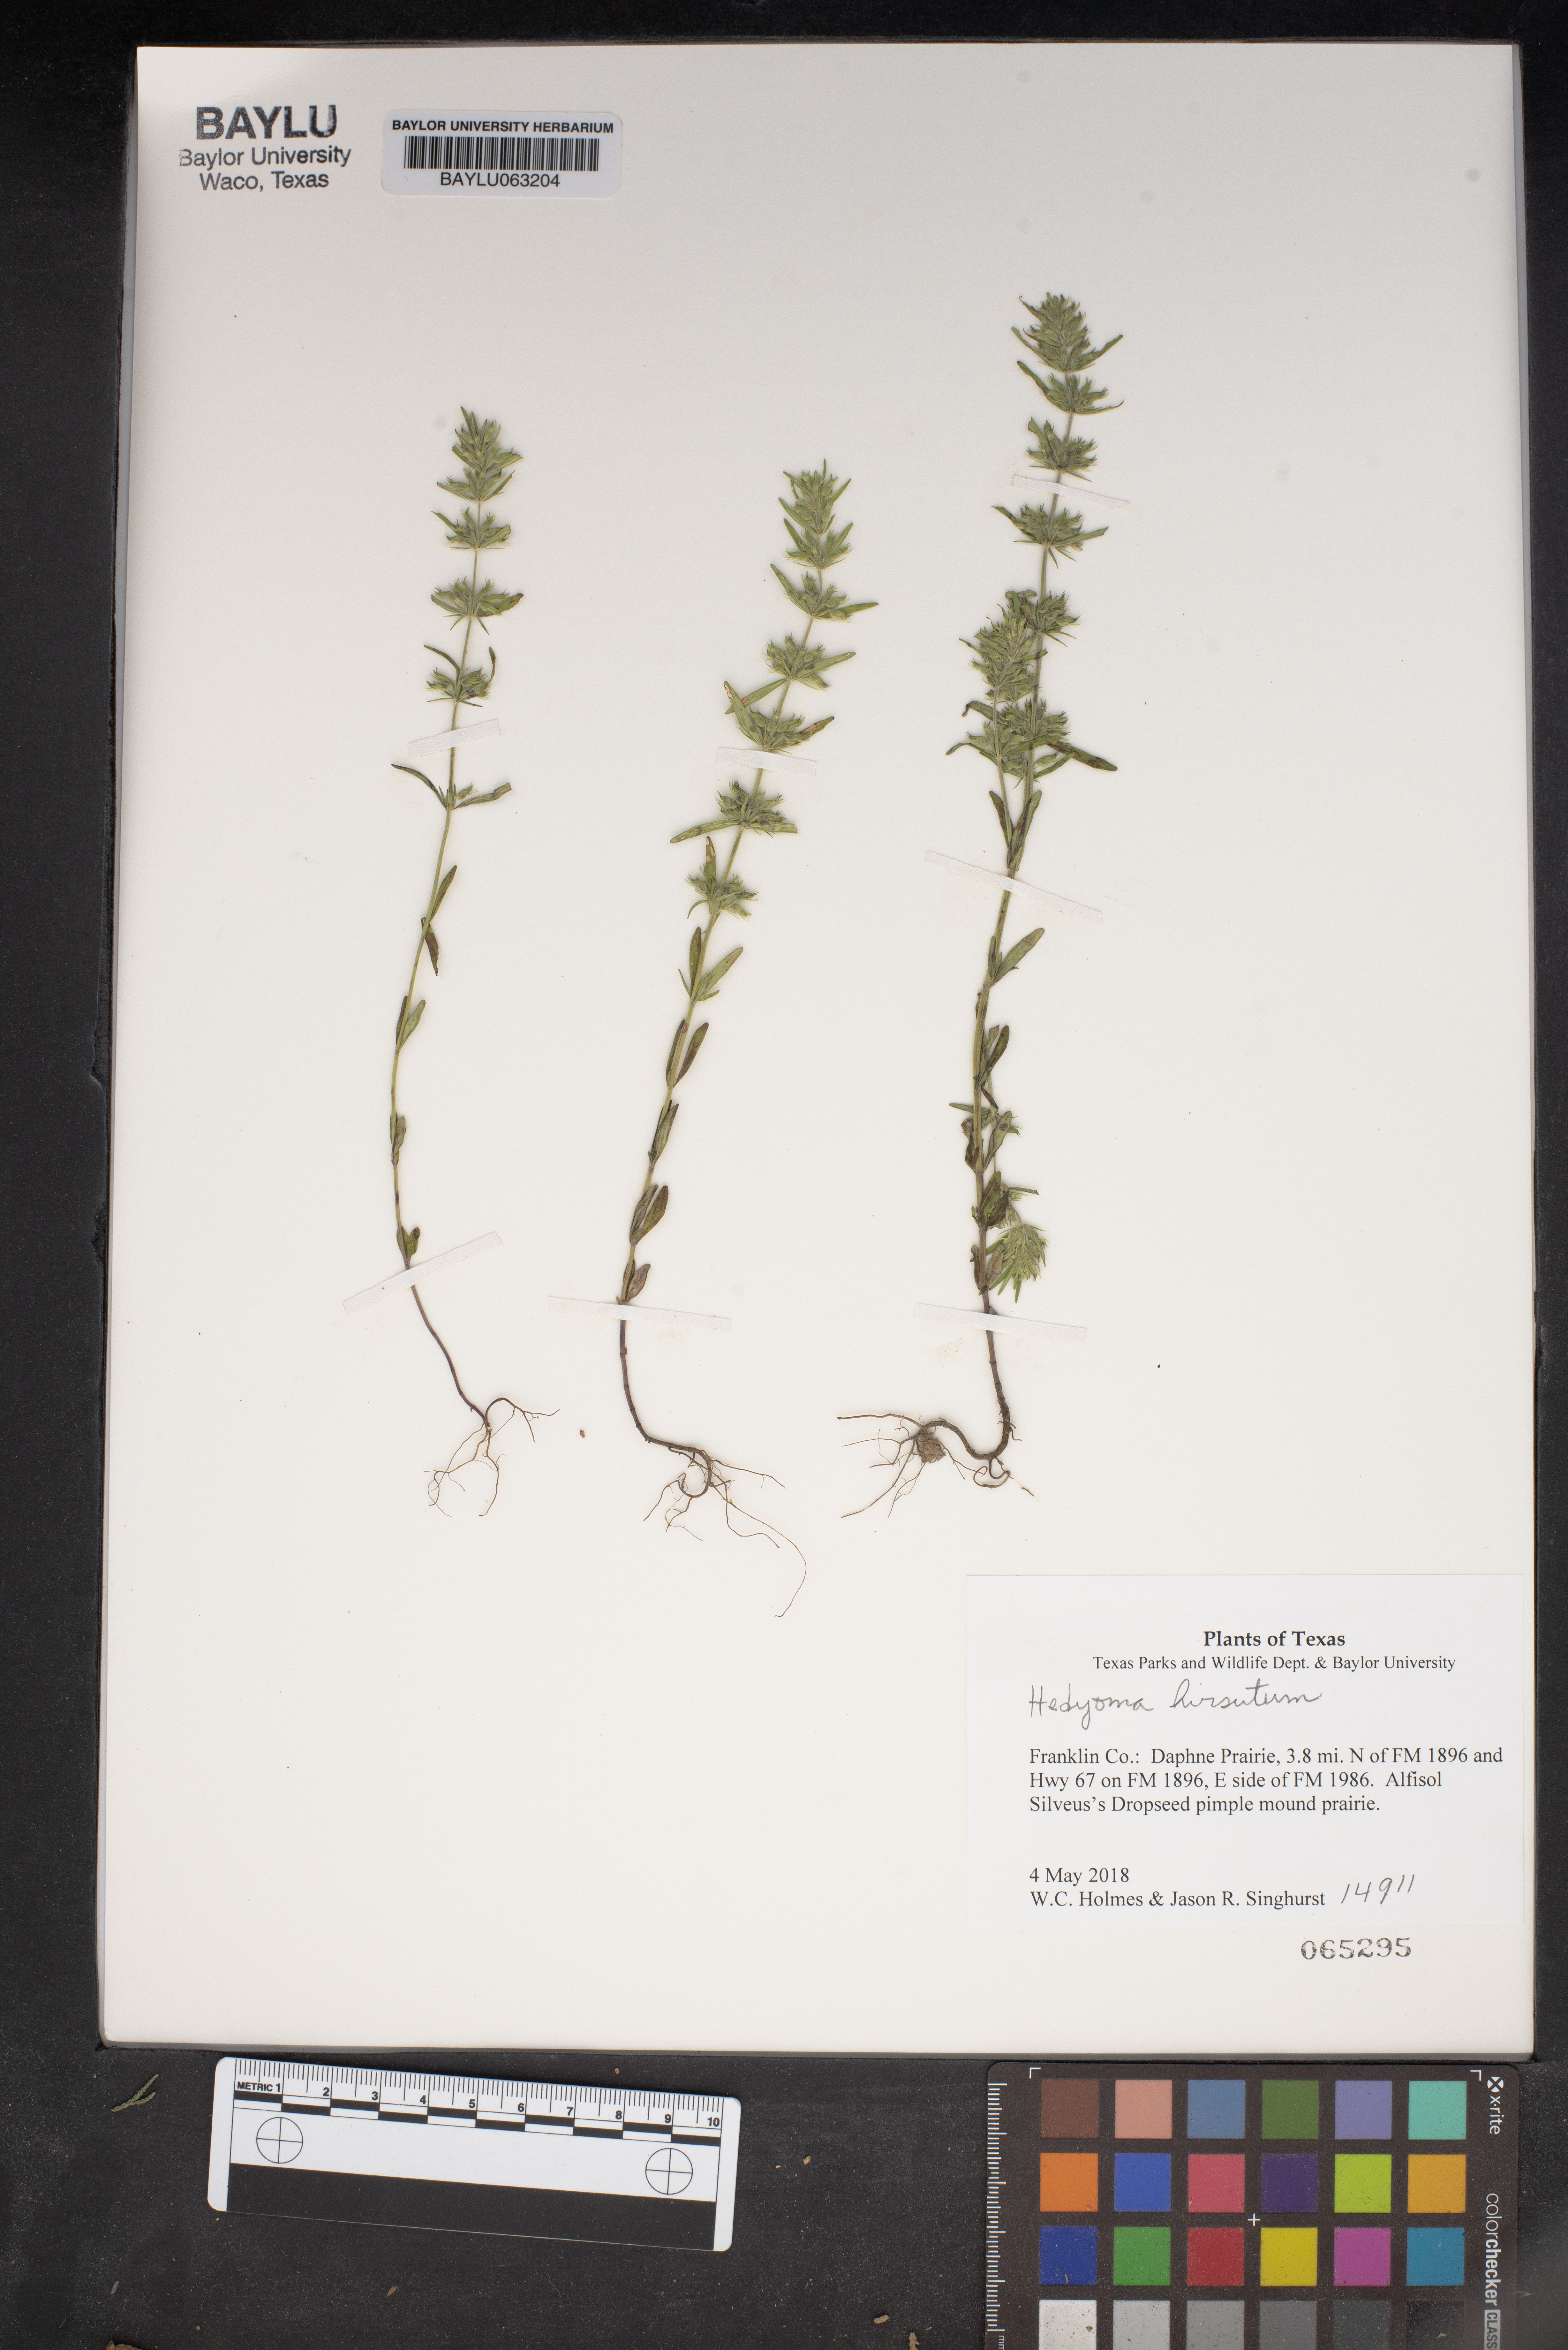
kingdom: Plantae
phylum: Tracheophyta
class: Magnoliopsida
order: Lamiales
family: Lamiaceae
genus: Hedeoma
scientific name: Hedeoma
